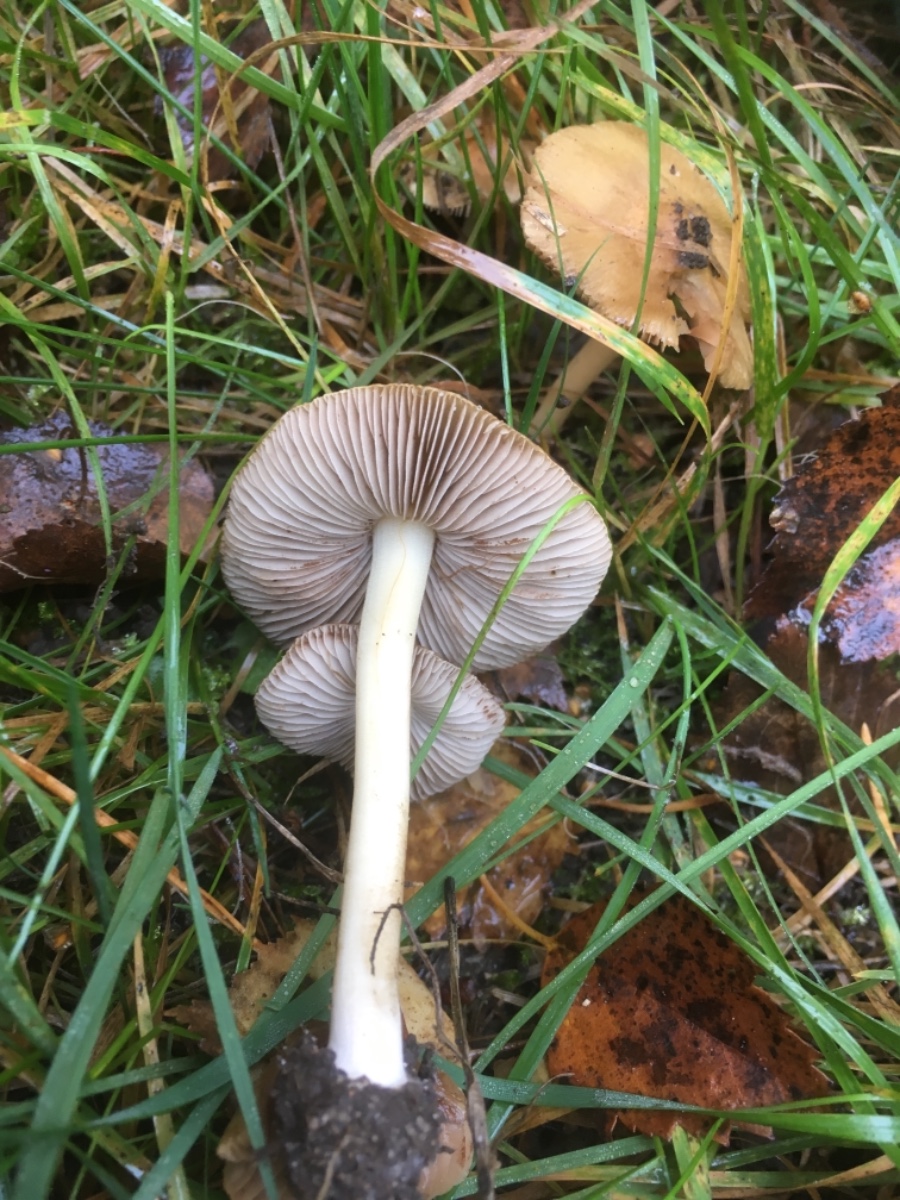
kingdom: Fungi
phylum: Basidiomycota
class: Agaricomycetes
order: Agaricales
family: Inocybaceae
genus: Inocybe
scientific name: Inocybe
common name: trævlhat
